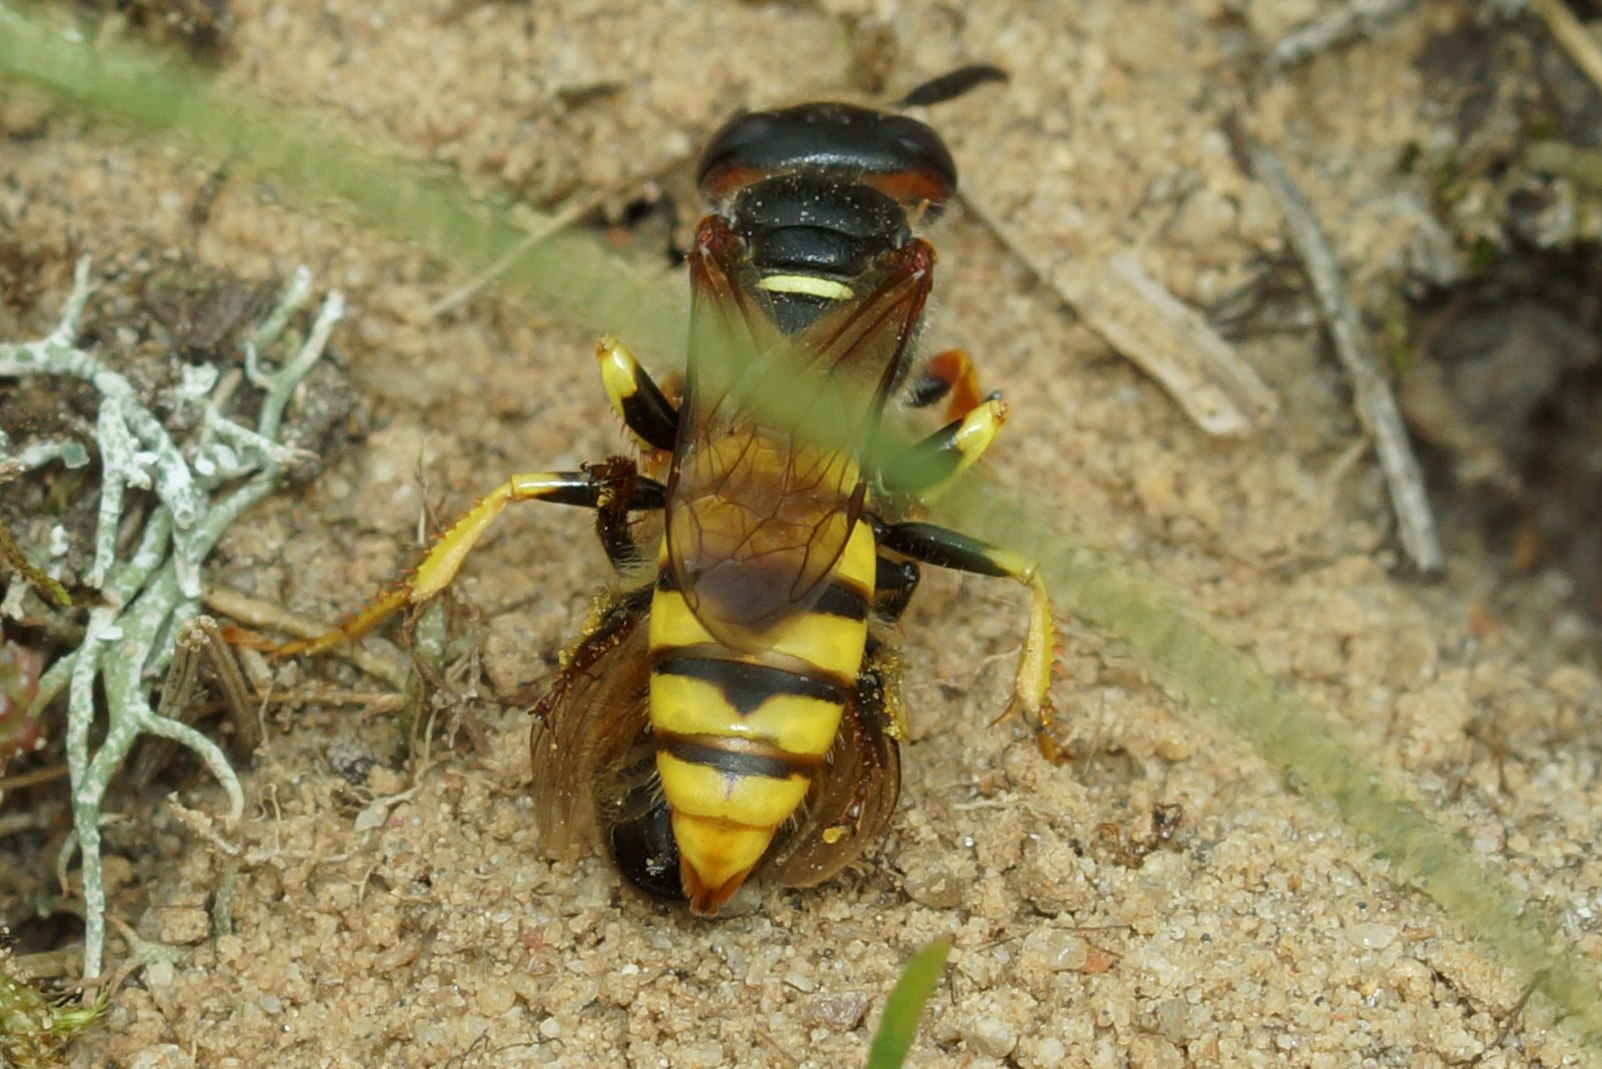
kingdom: Animalia
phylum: Arthropoda
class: Insecta
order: Hymenoptera
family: Crabronidae
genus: Philanthus
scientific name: Philanthus triangulum
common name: Biulv
